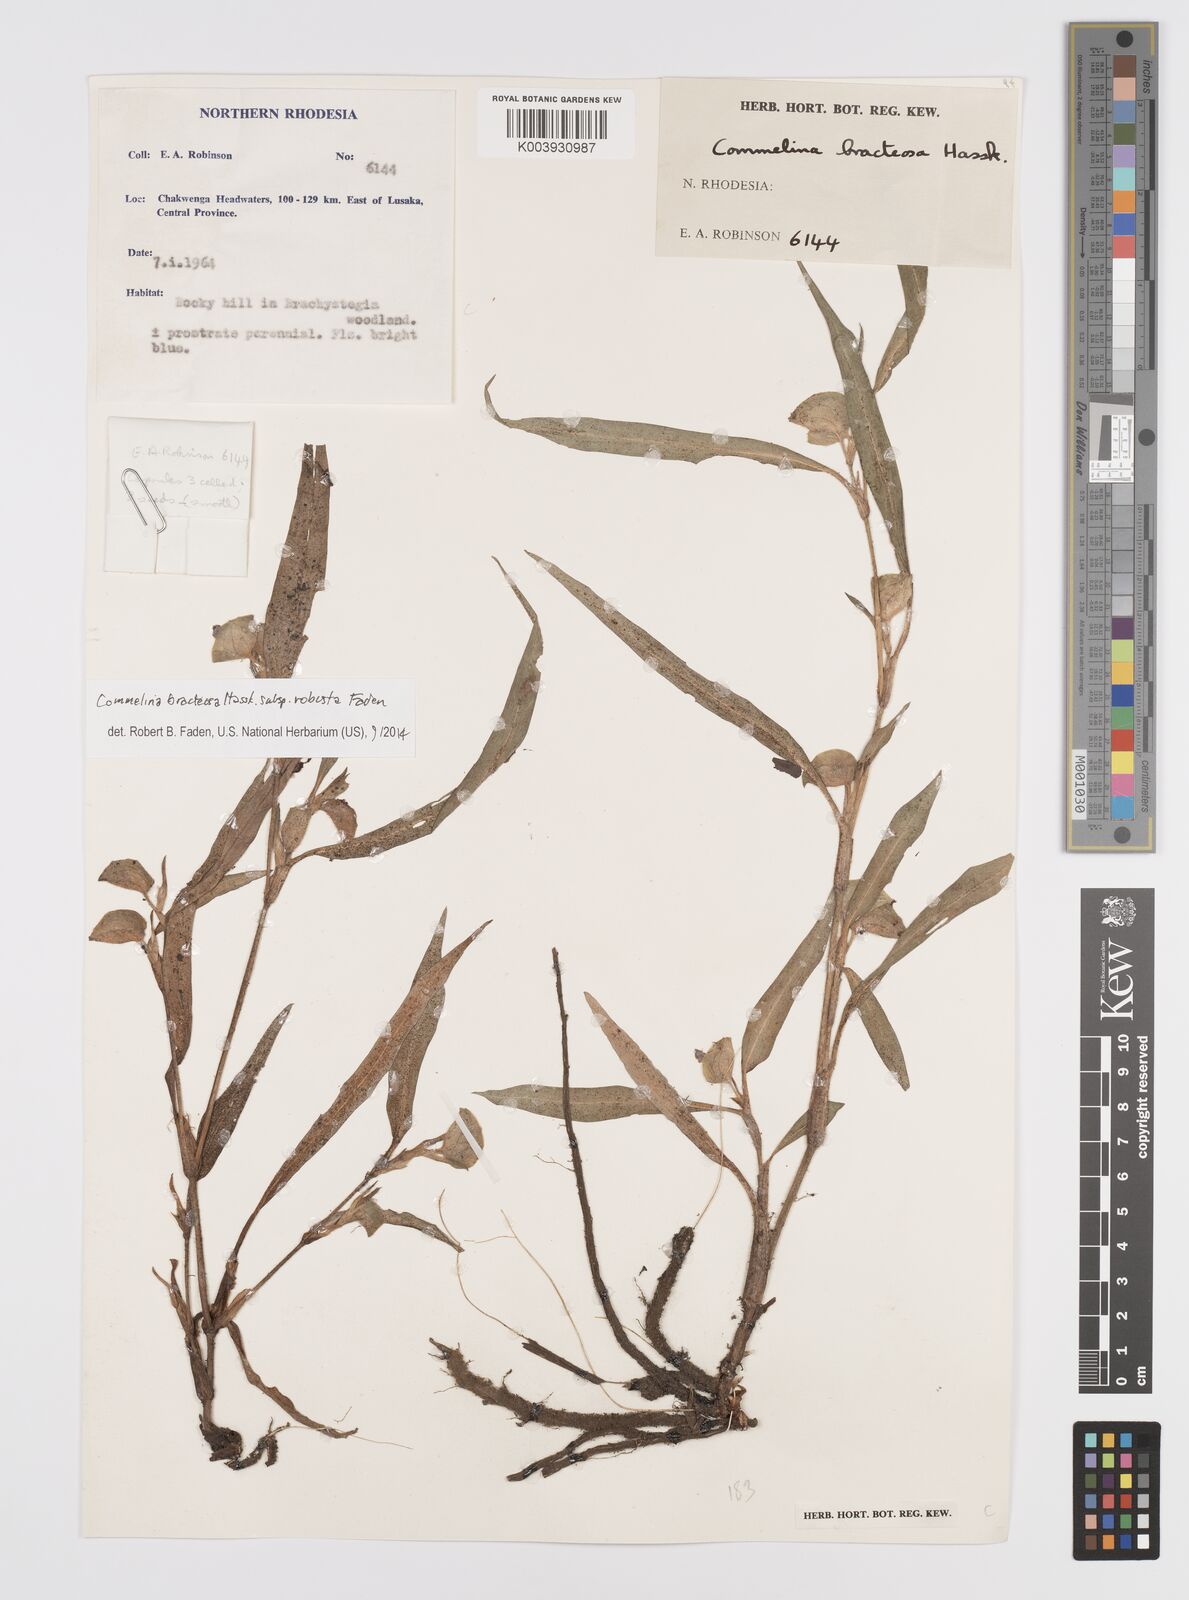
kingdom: Plantae
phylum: Tracheophyta
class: Liliopsida
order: Commelinales
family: Commelinaceae
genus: Commelina
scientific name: Commelina bracteosa
